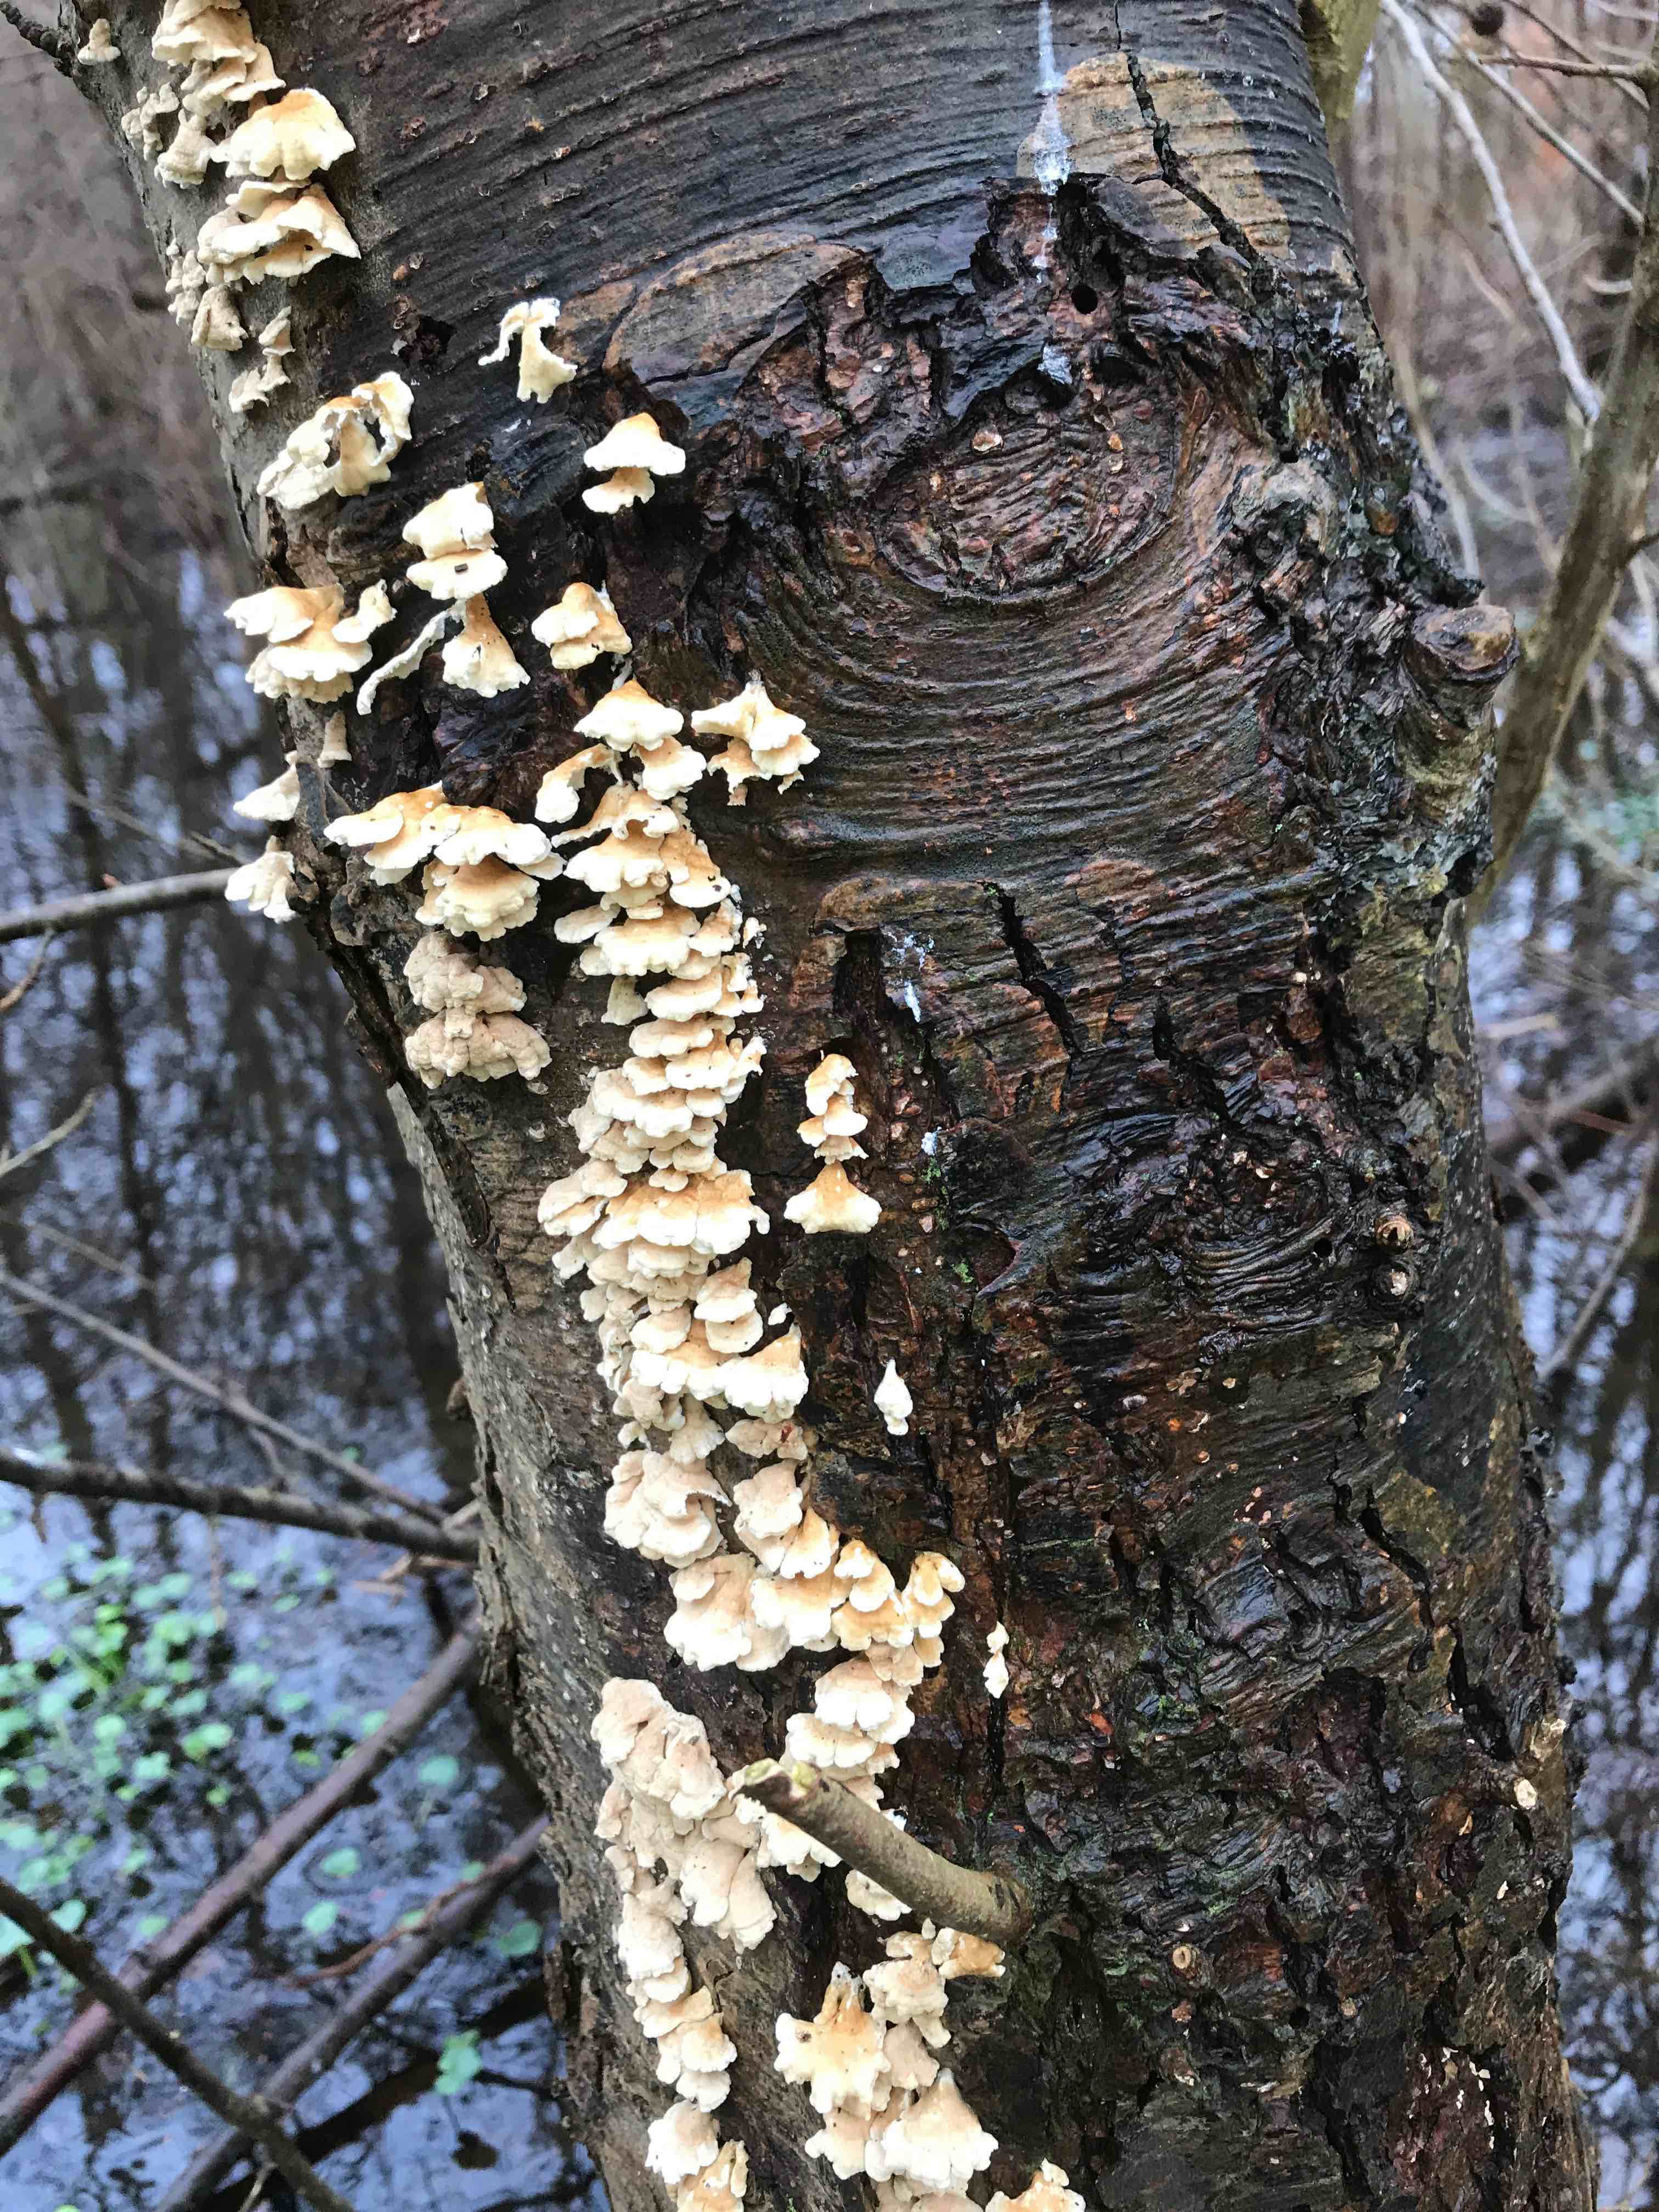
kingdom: Fungi
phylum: Basidiomycota
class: Agaricomycetes
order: Amylocorticiales
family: Amylocorticiaceae
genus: Plicaturopsis
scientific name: Plicaturopsis crispa
